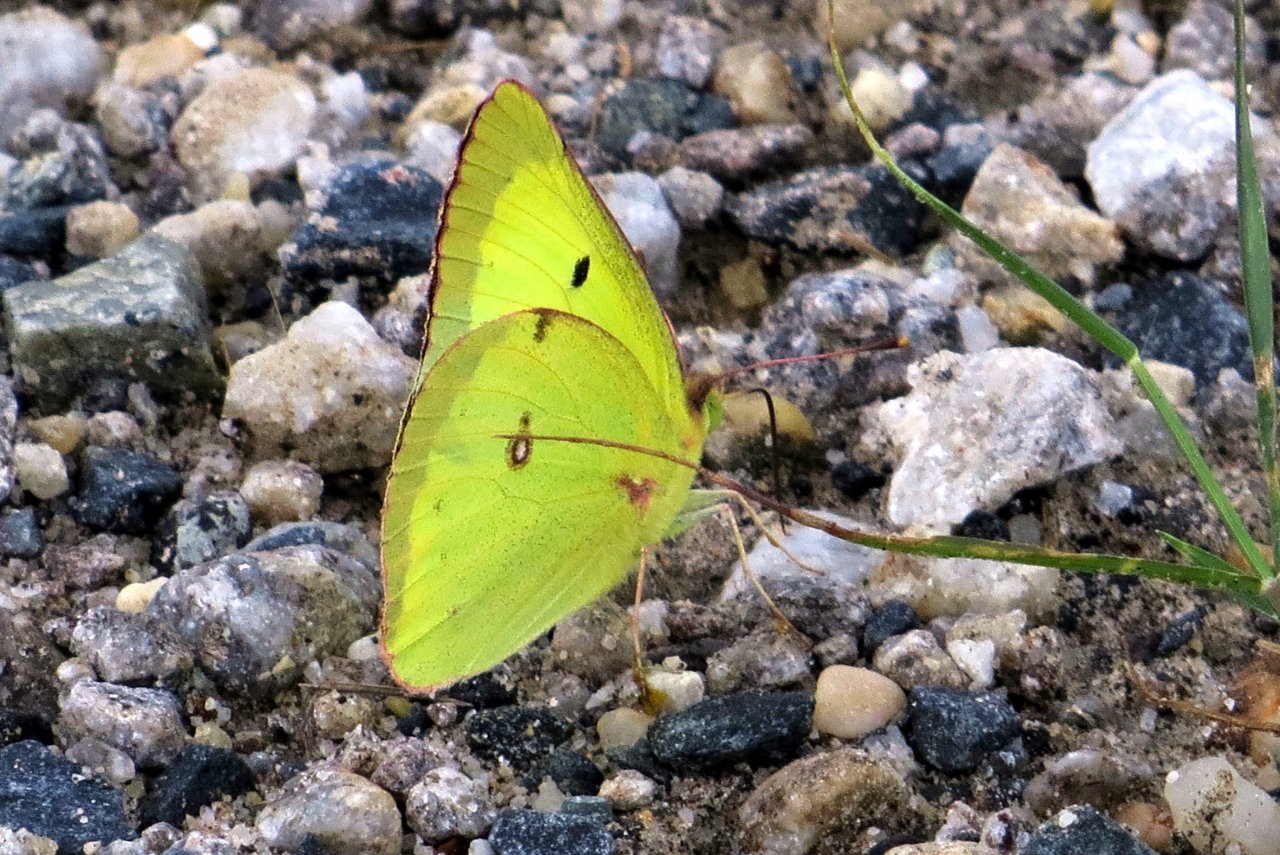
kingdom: Animalia
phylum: Arthropoda
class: Insecta
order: Lepidoptera
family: Pieridae
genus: Colias
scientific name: Colias philodice
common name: Clouded Sulphur
